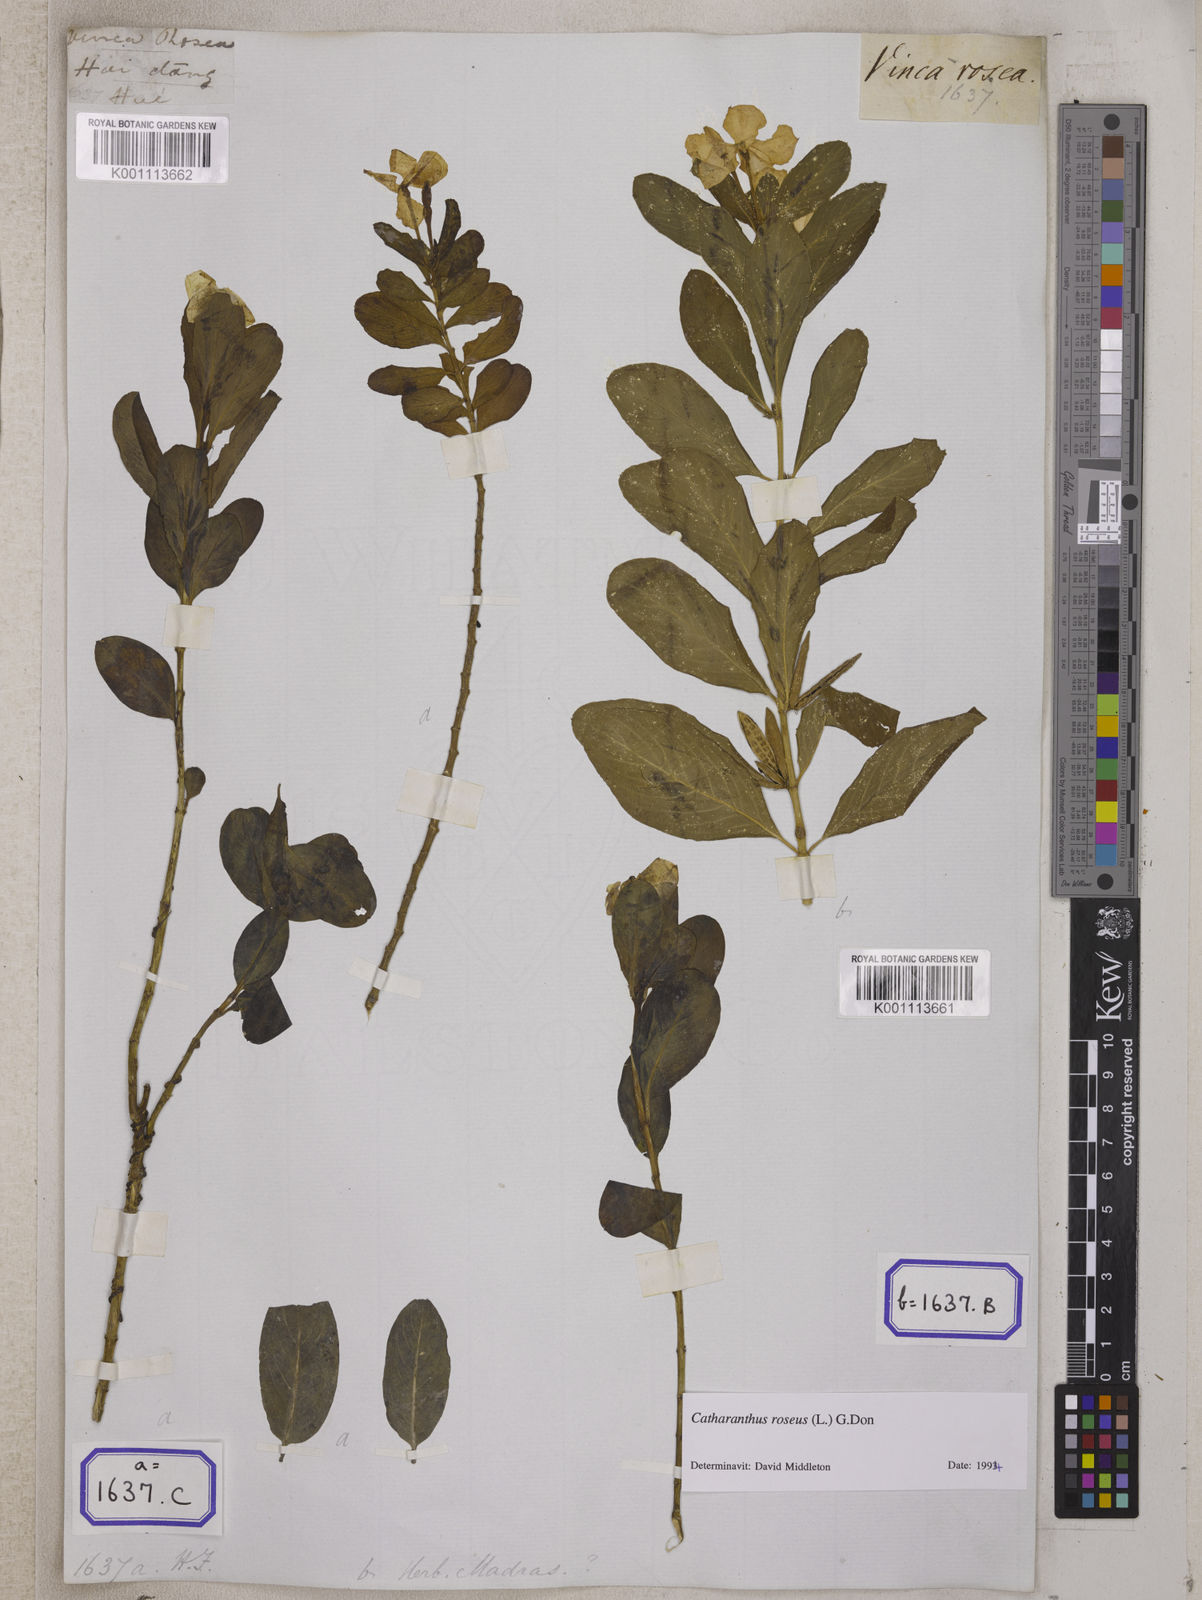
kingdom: Plantae
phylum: Tracheophyta
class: Magnoliopsida
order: Gentianales
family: Apocynaceae
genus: Catharanthus
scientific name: Catharanthus roseus
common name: Madagascar periwinkle
